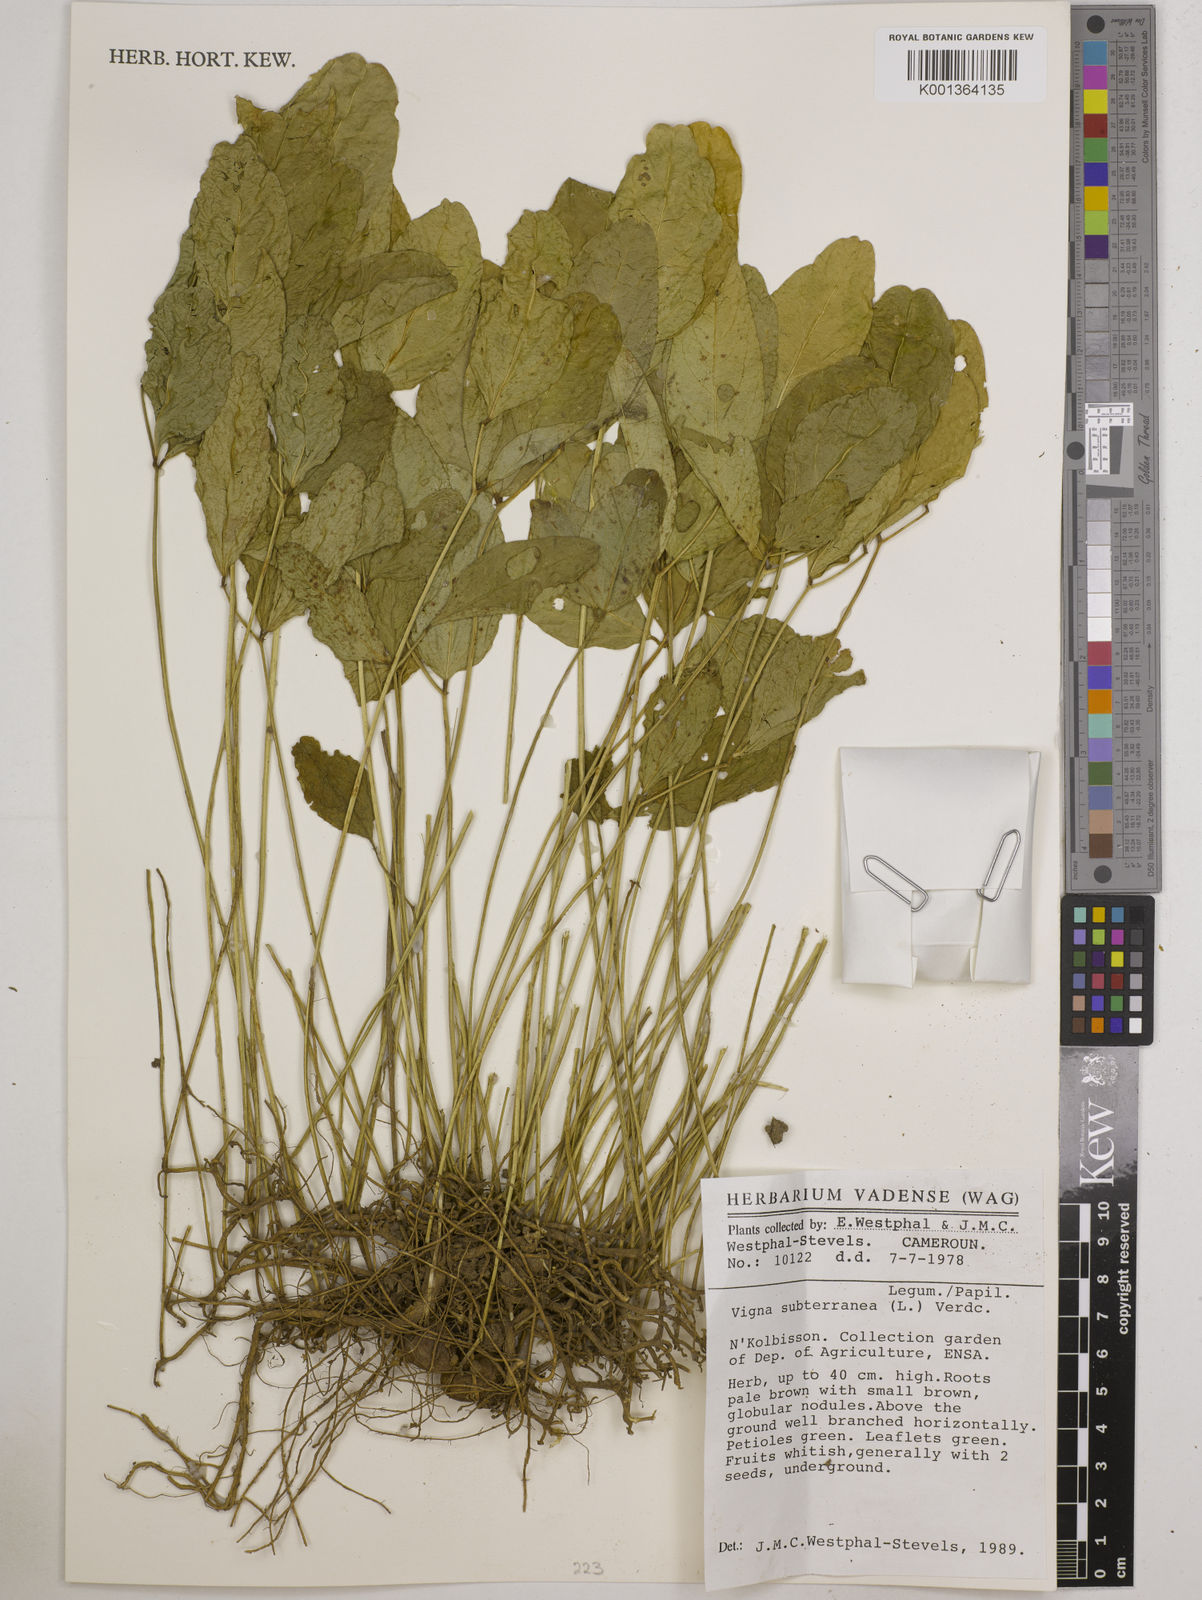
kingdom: Plantae
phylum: Tracheophyta
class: Magnoliopsida
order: Fabales
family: Fabaceae
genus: Vigna
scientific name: Vigna subterranea
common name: Bambara groundnut
